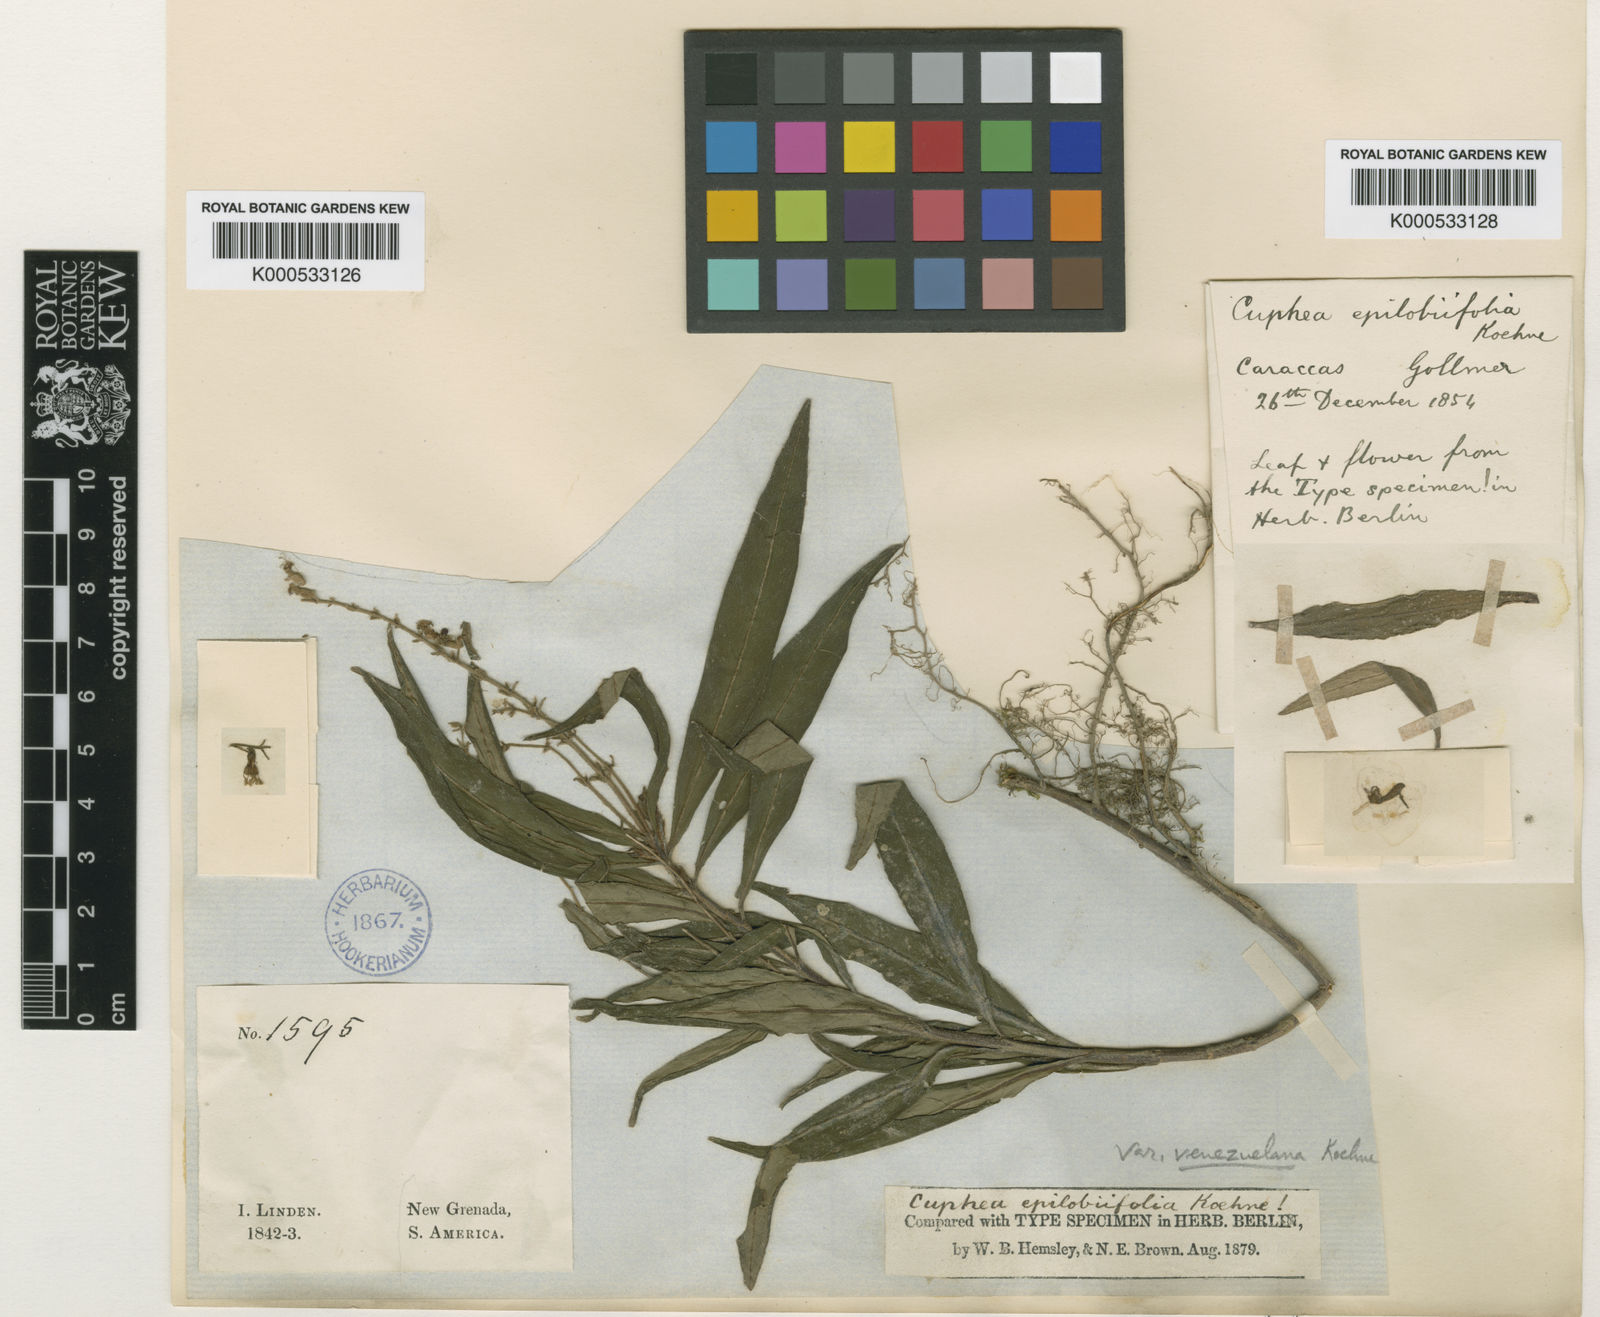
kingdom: Plantae
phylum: Tracheophyta
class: Magnoliopsida
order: Myrtales
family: Lythraceae
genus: Cuphea
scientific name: Cuphea epilobiifolia
